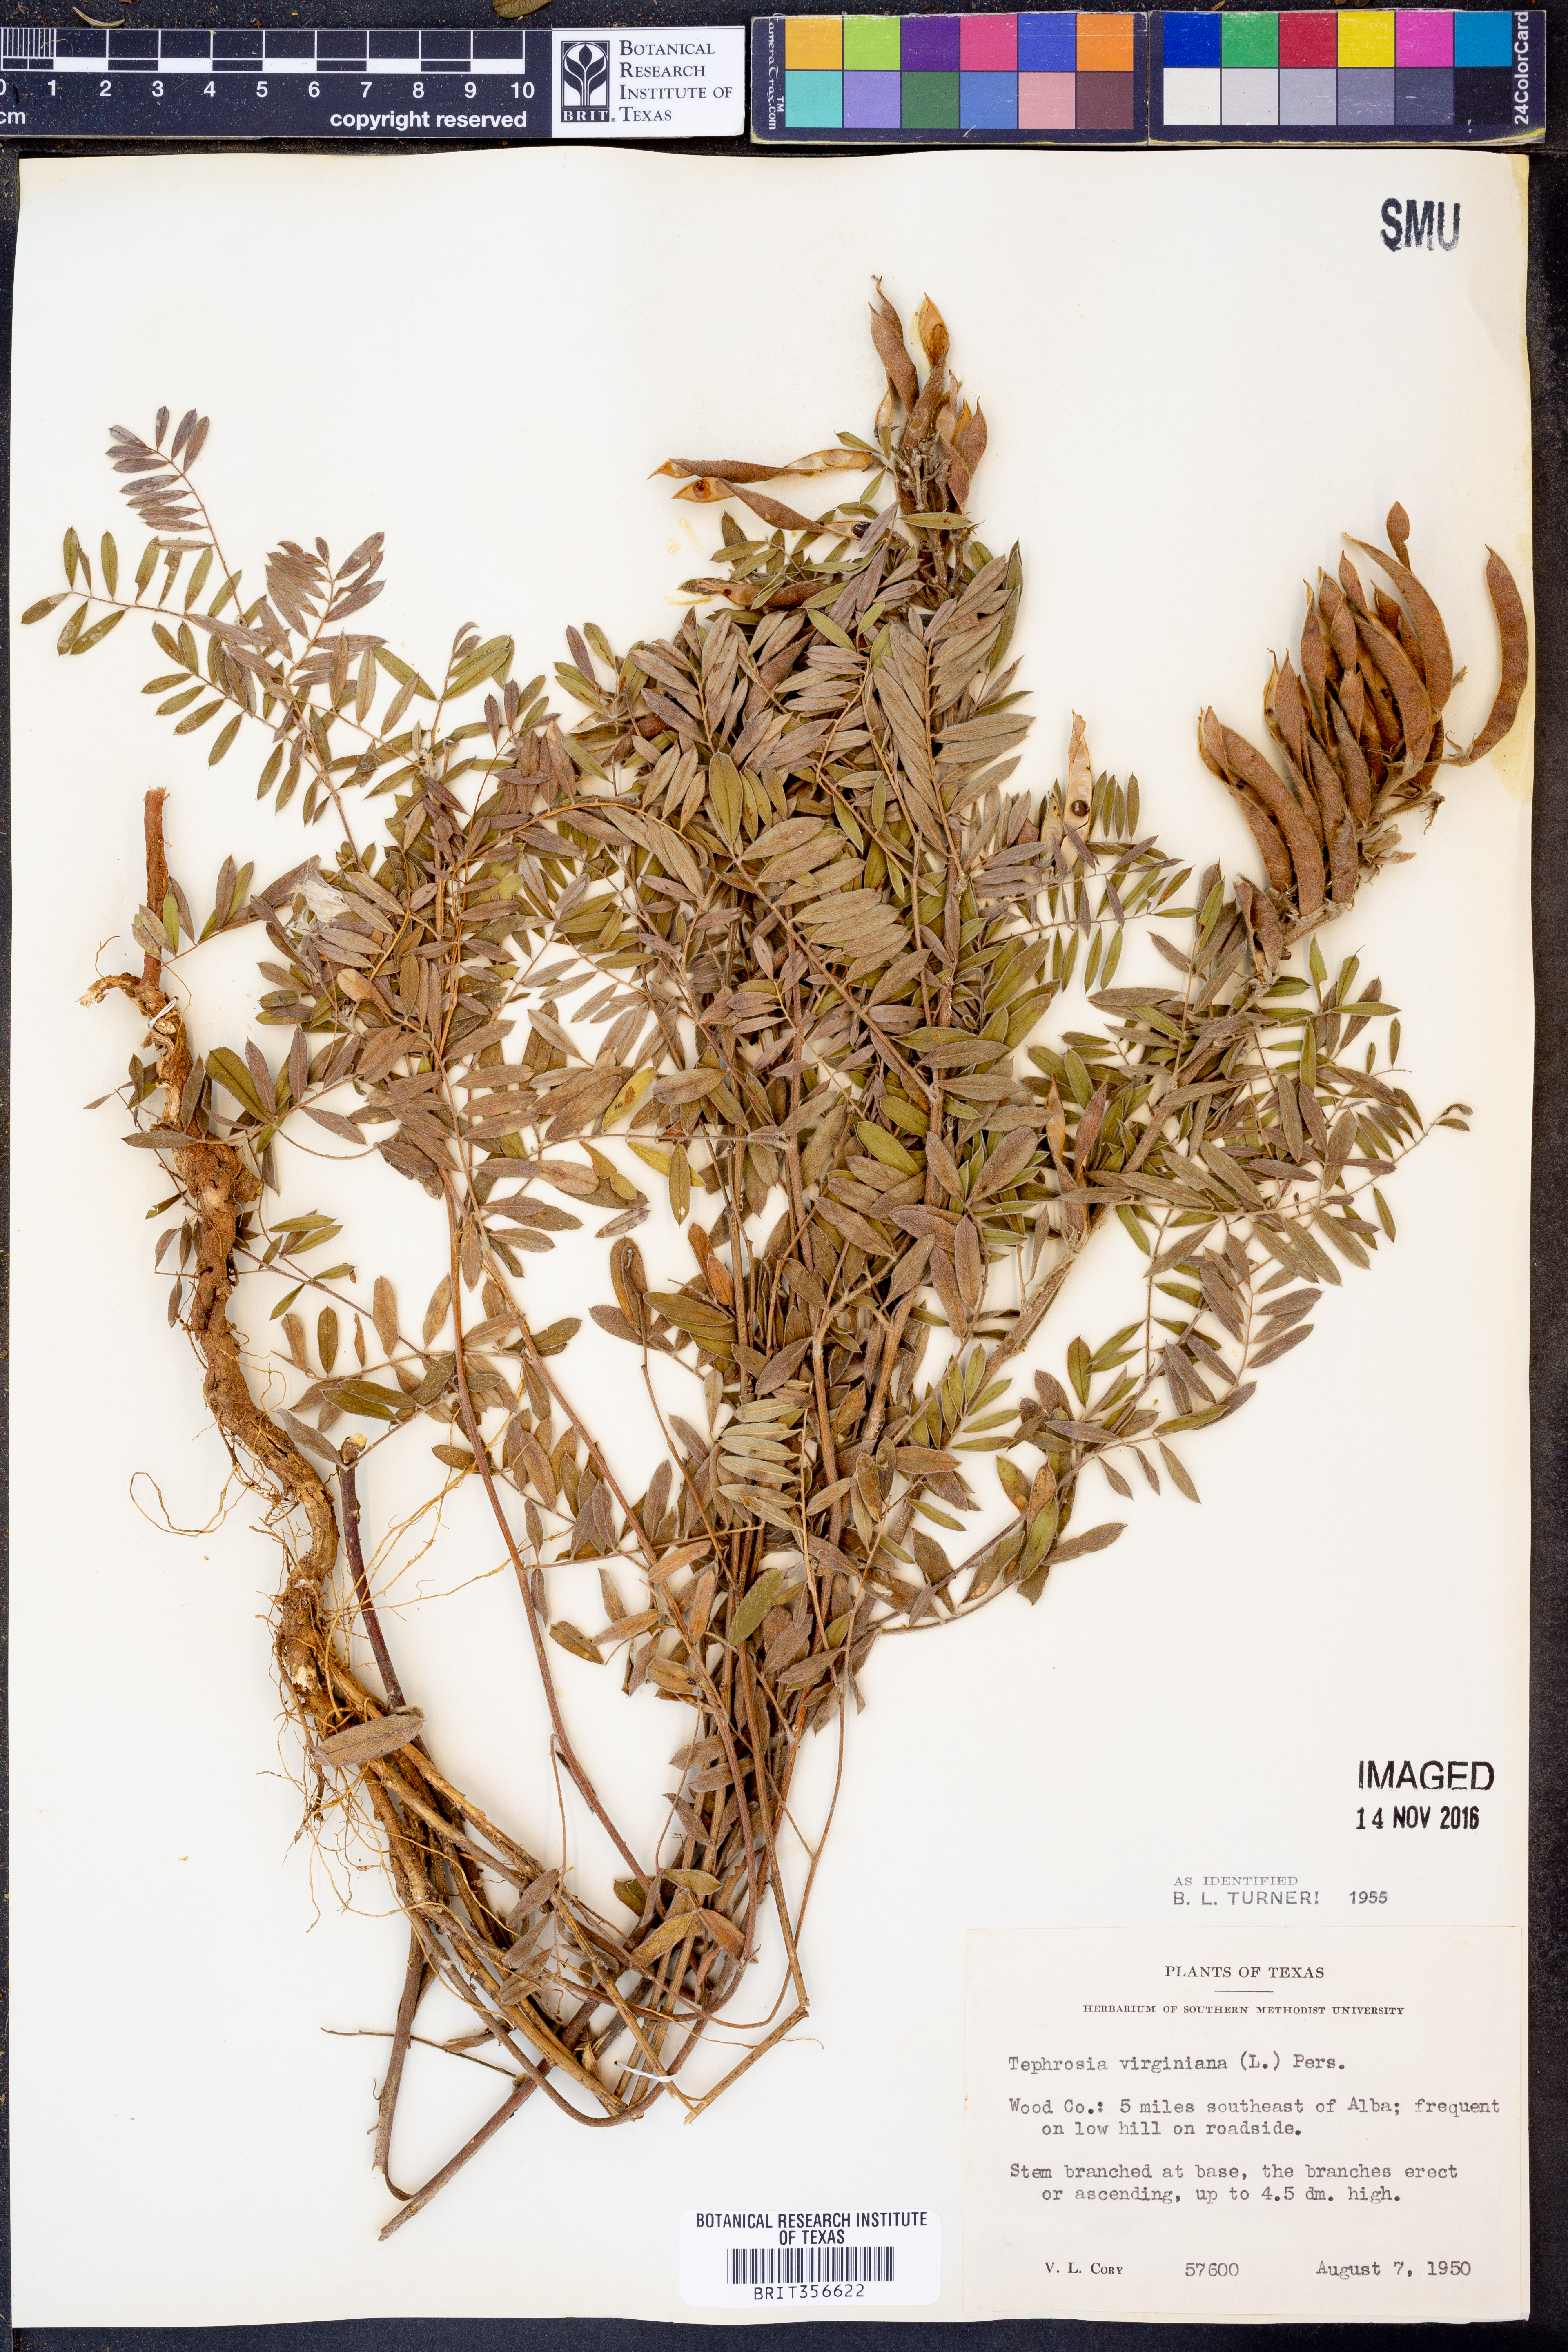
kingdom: Plantae
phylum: Tracheophyta
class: Magnoliopsida
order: Fabales
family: Fabaceae
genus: Tephrosia
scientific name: Tephrosia virginiana
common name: Rabbit-pea
